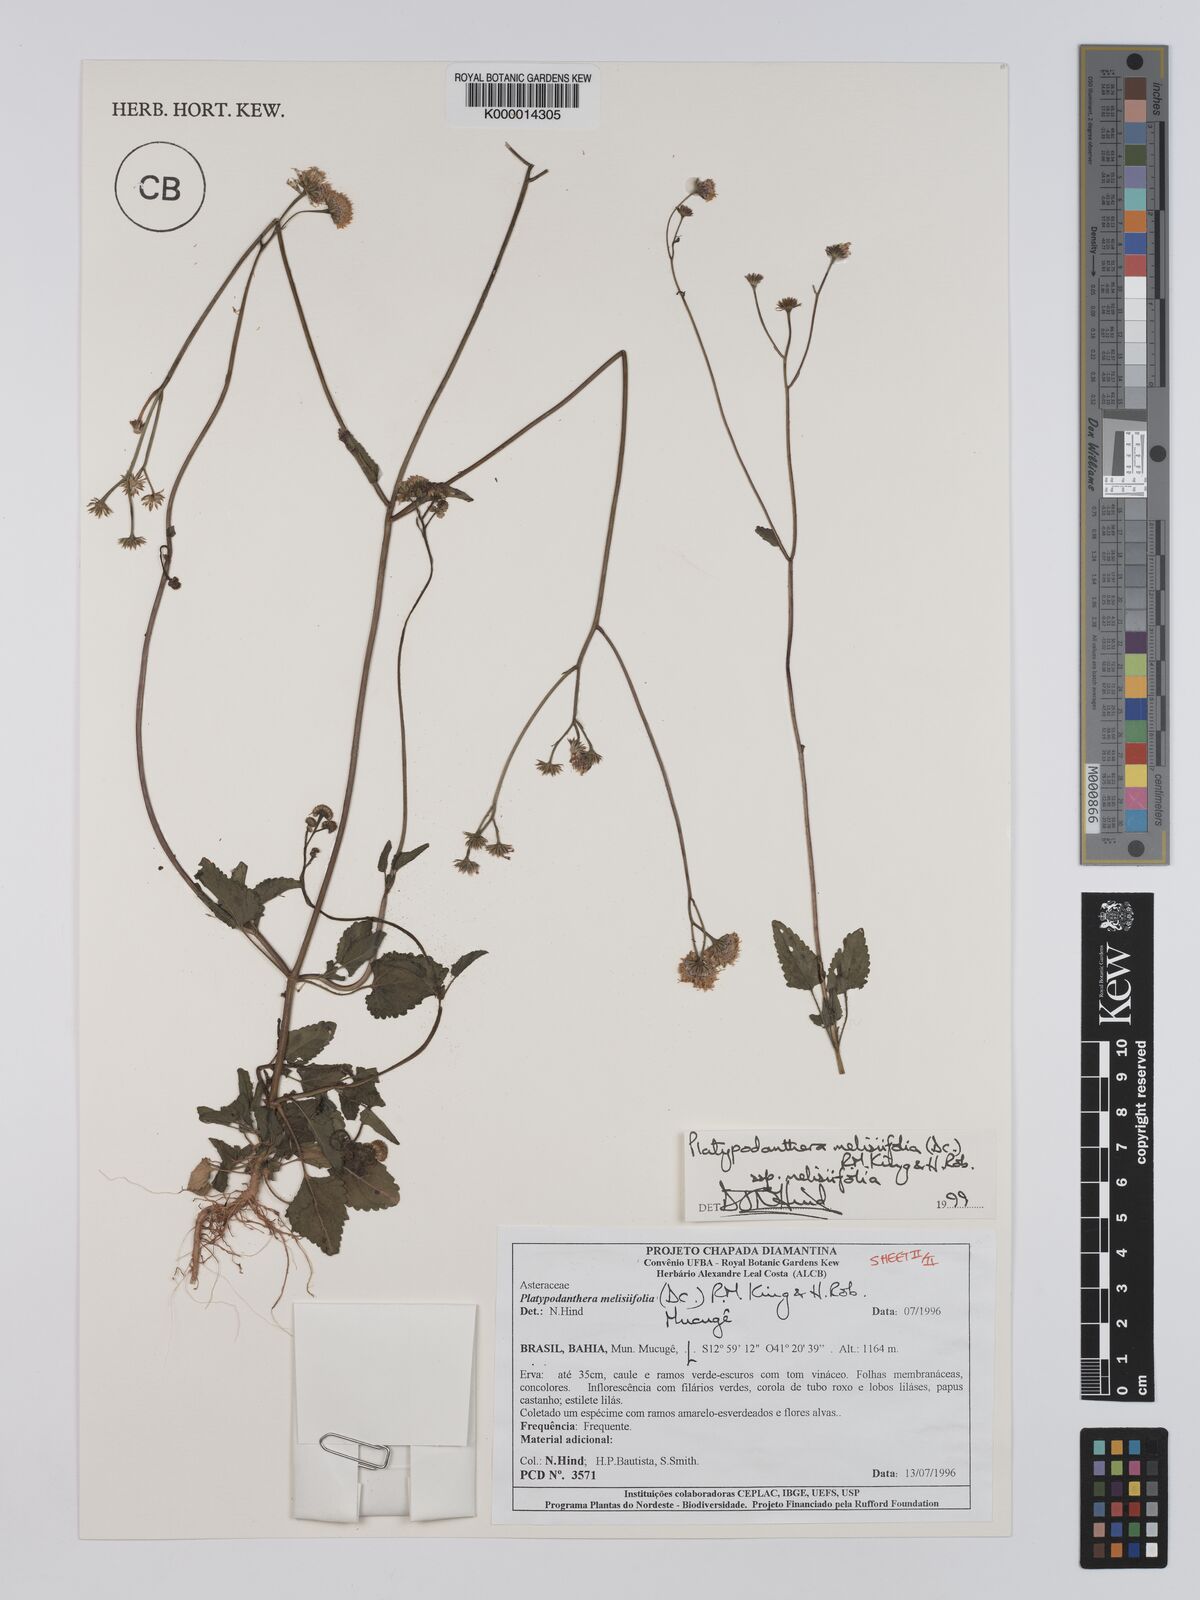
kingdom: Plantae
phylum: Tracheophyta
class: Magnoliopsida
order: Asterales
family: Asteraceae
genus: Platypodanthera
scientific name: Platypodanthera melissifolia
